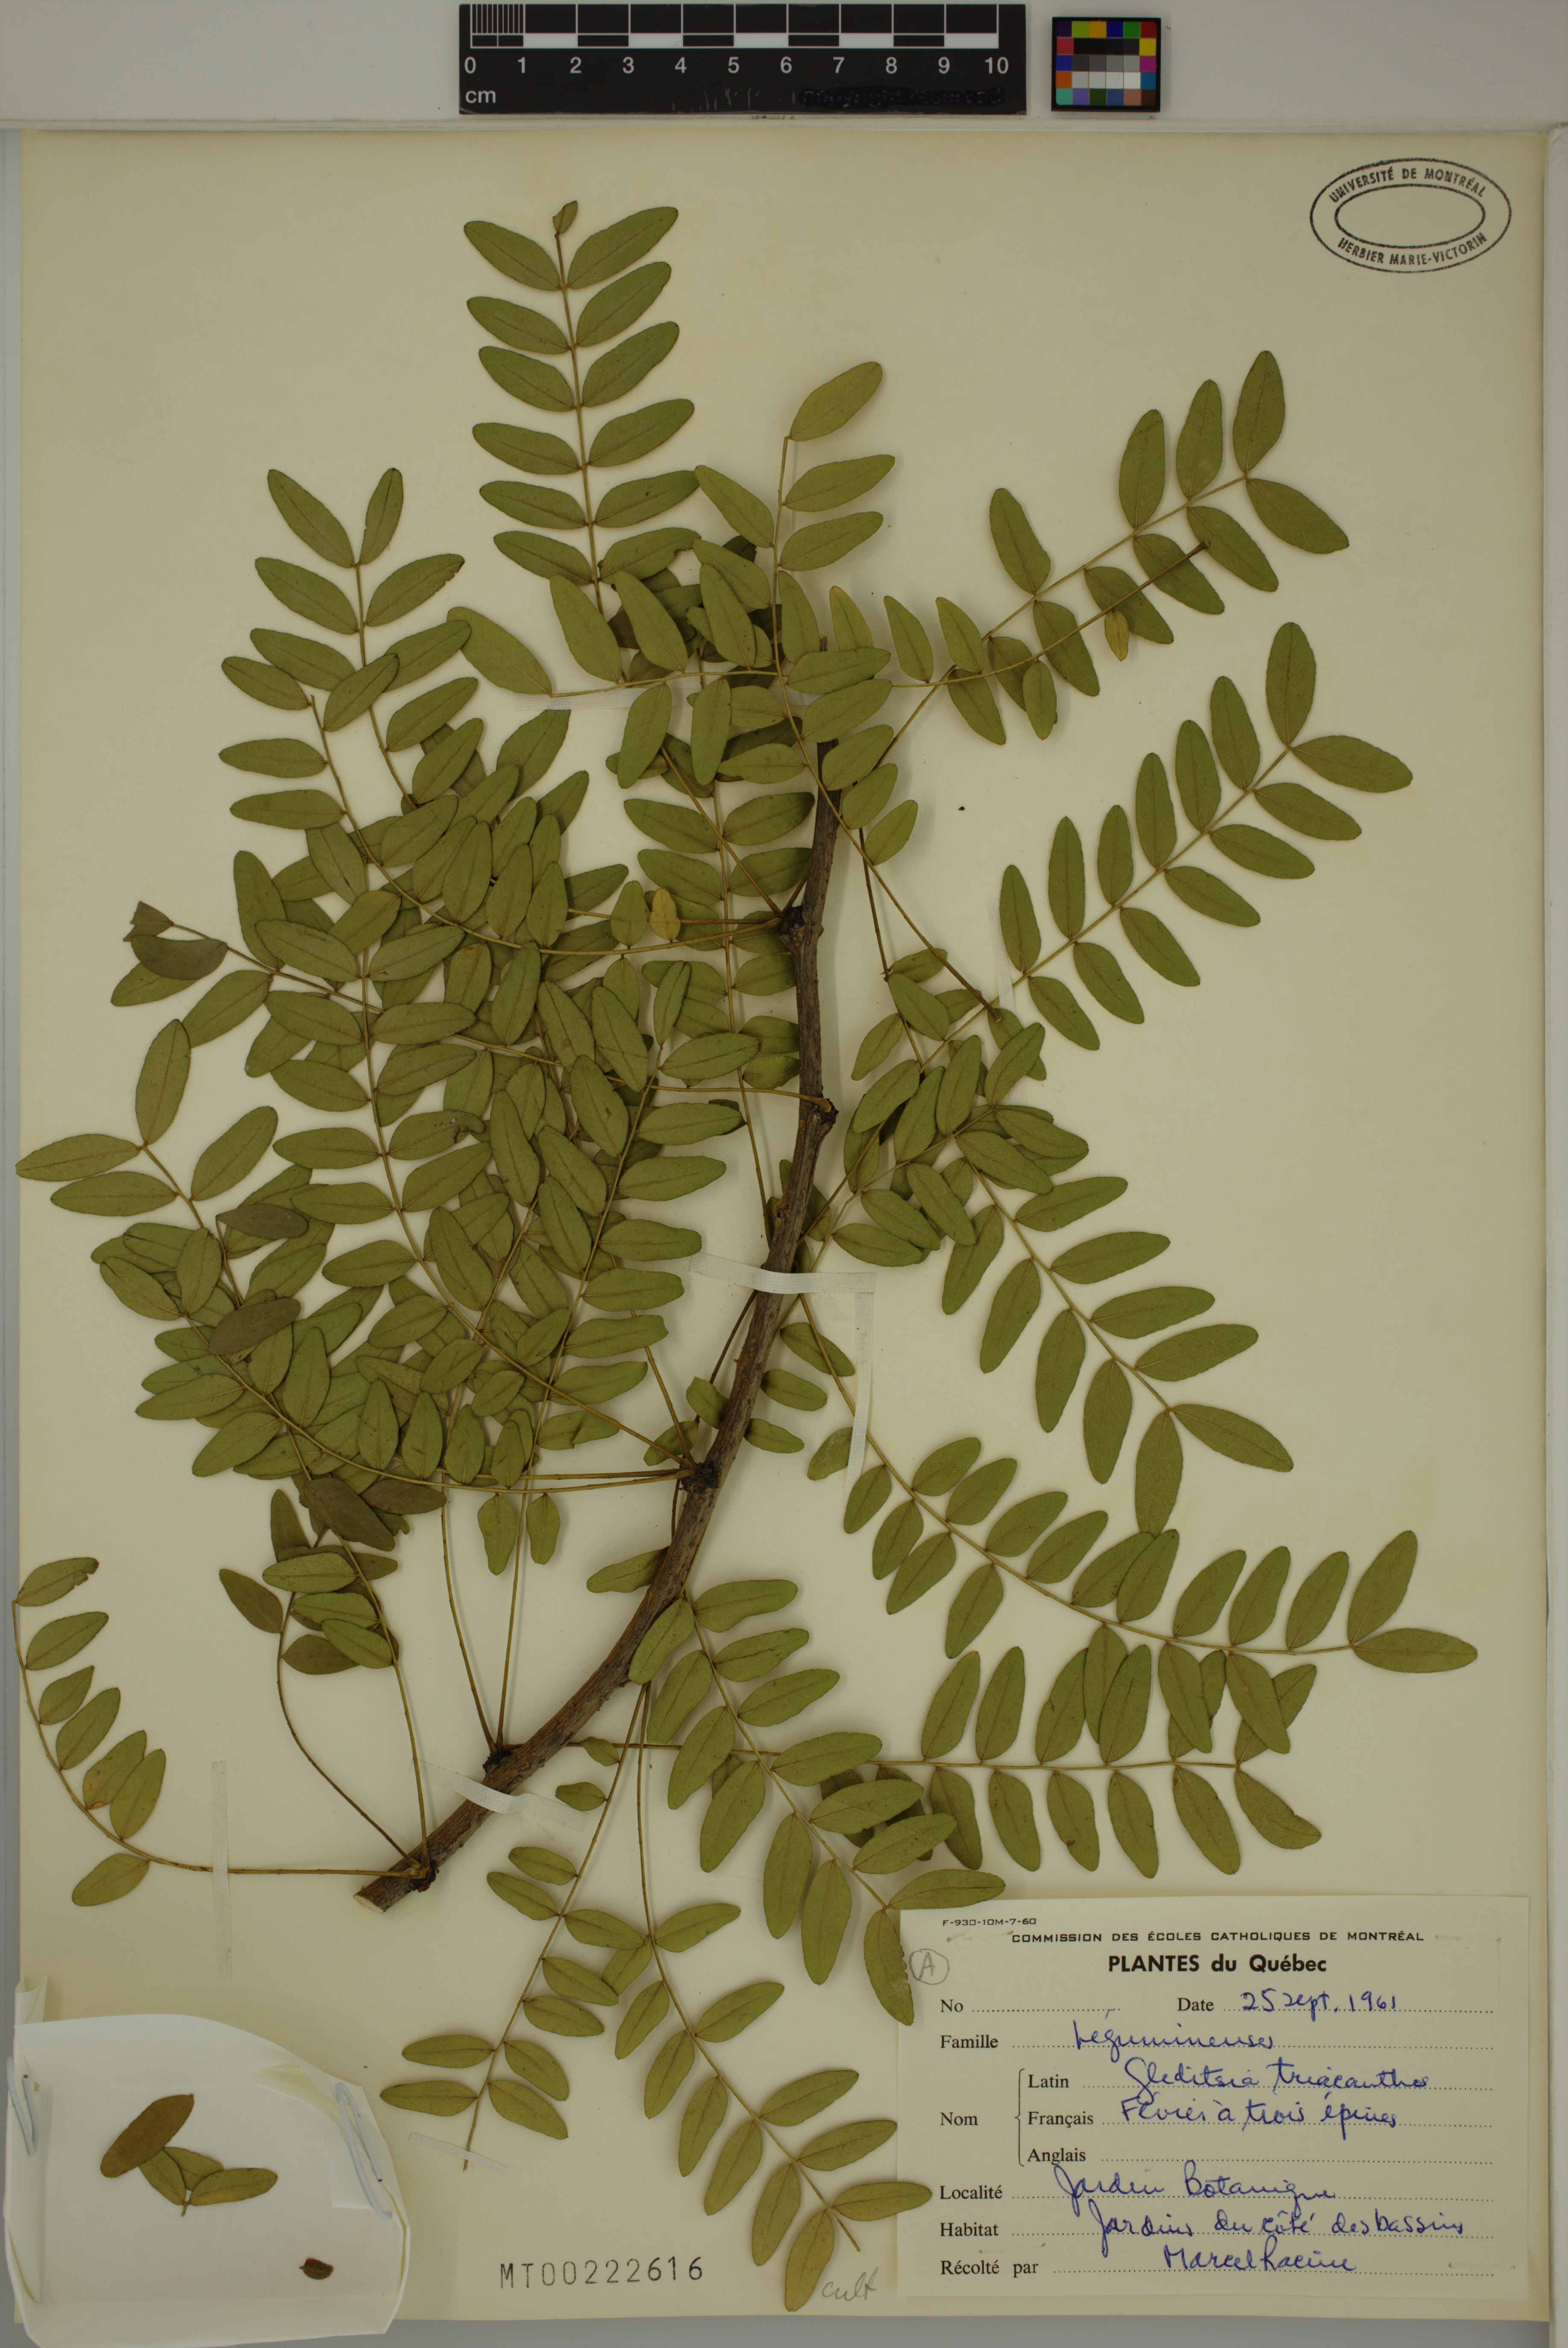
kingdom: Plantae
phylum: Tracheophyta
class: Magnoliopsida
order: Fabales
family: Fabaceae
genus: Gleditsia
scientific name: Gleditsia triacanthos
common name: Common honeylocust
